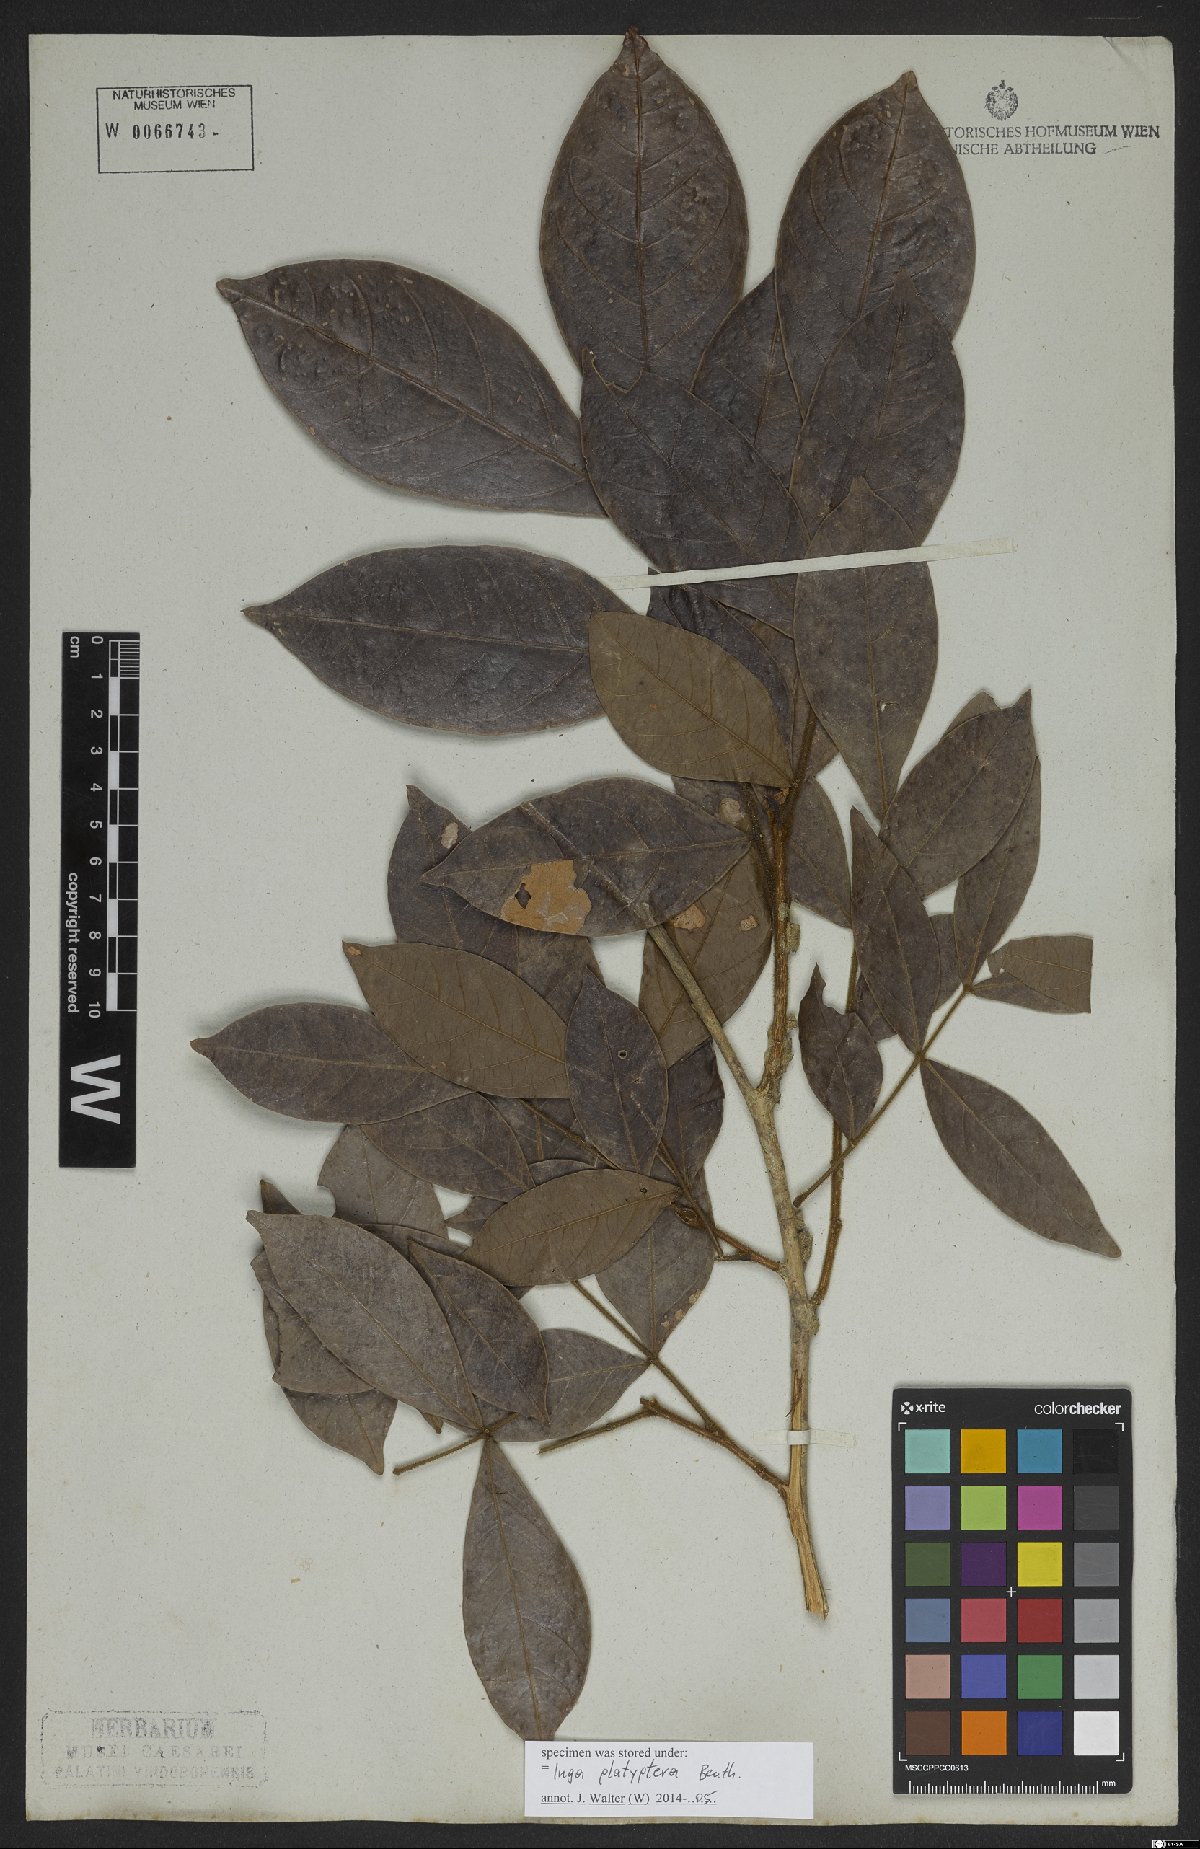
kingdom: Plantae
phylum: Tracheophyta
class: Magnoliopsida
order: Fabales
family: Fabaceae
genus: Inga
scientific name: Inga platyptera
